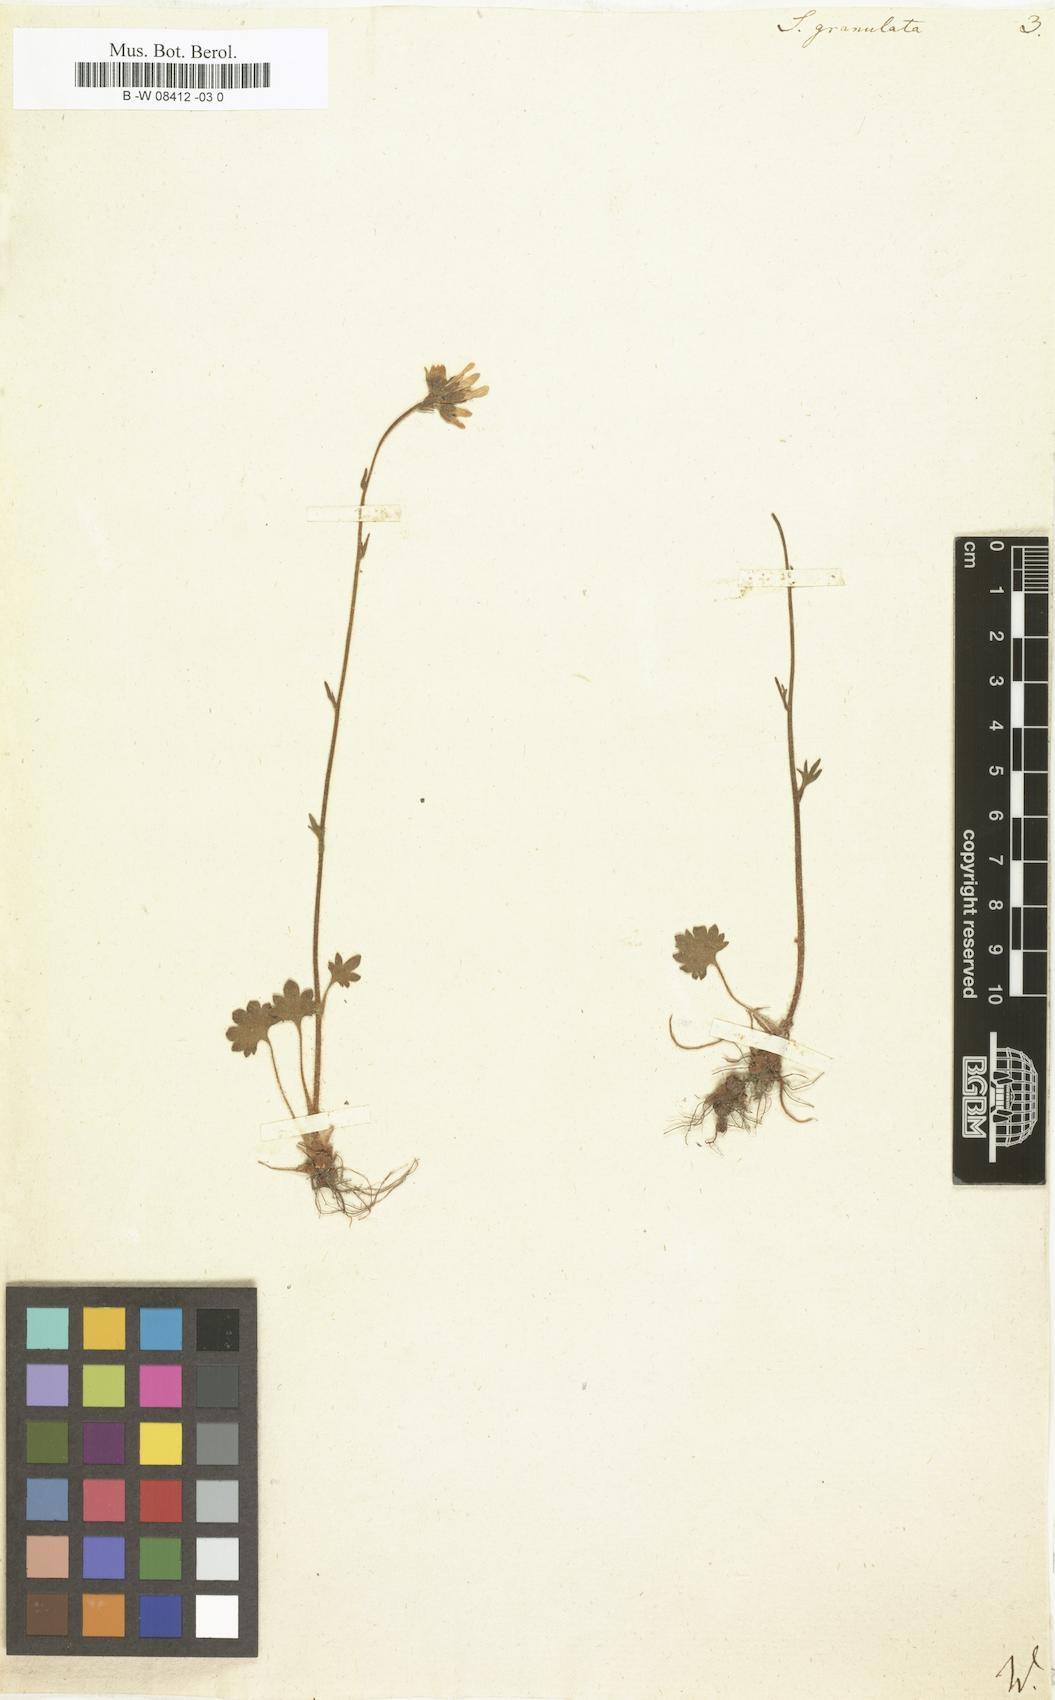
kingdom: Plantae
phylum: Tracheophyta
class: Magnoliopsida
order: Saxifragales
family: Saxifragaceae
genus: Saxifraga
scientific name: Saxifraga granulata
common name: Meadow saxifrage
